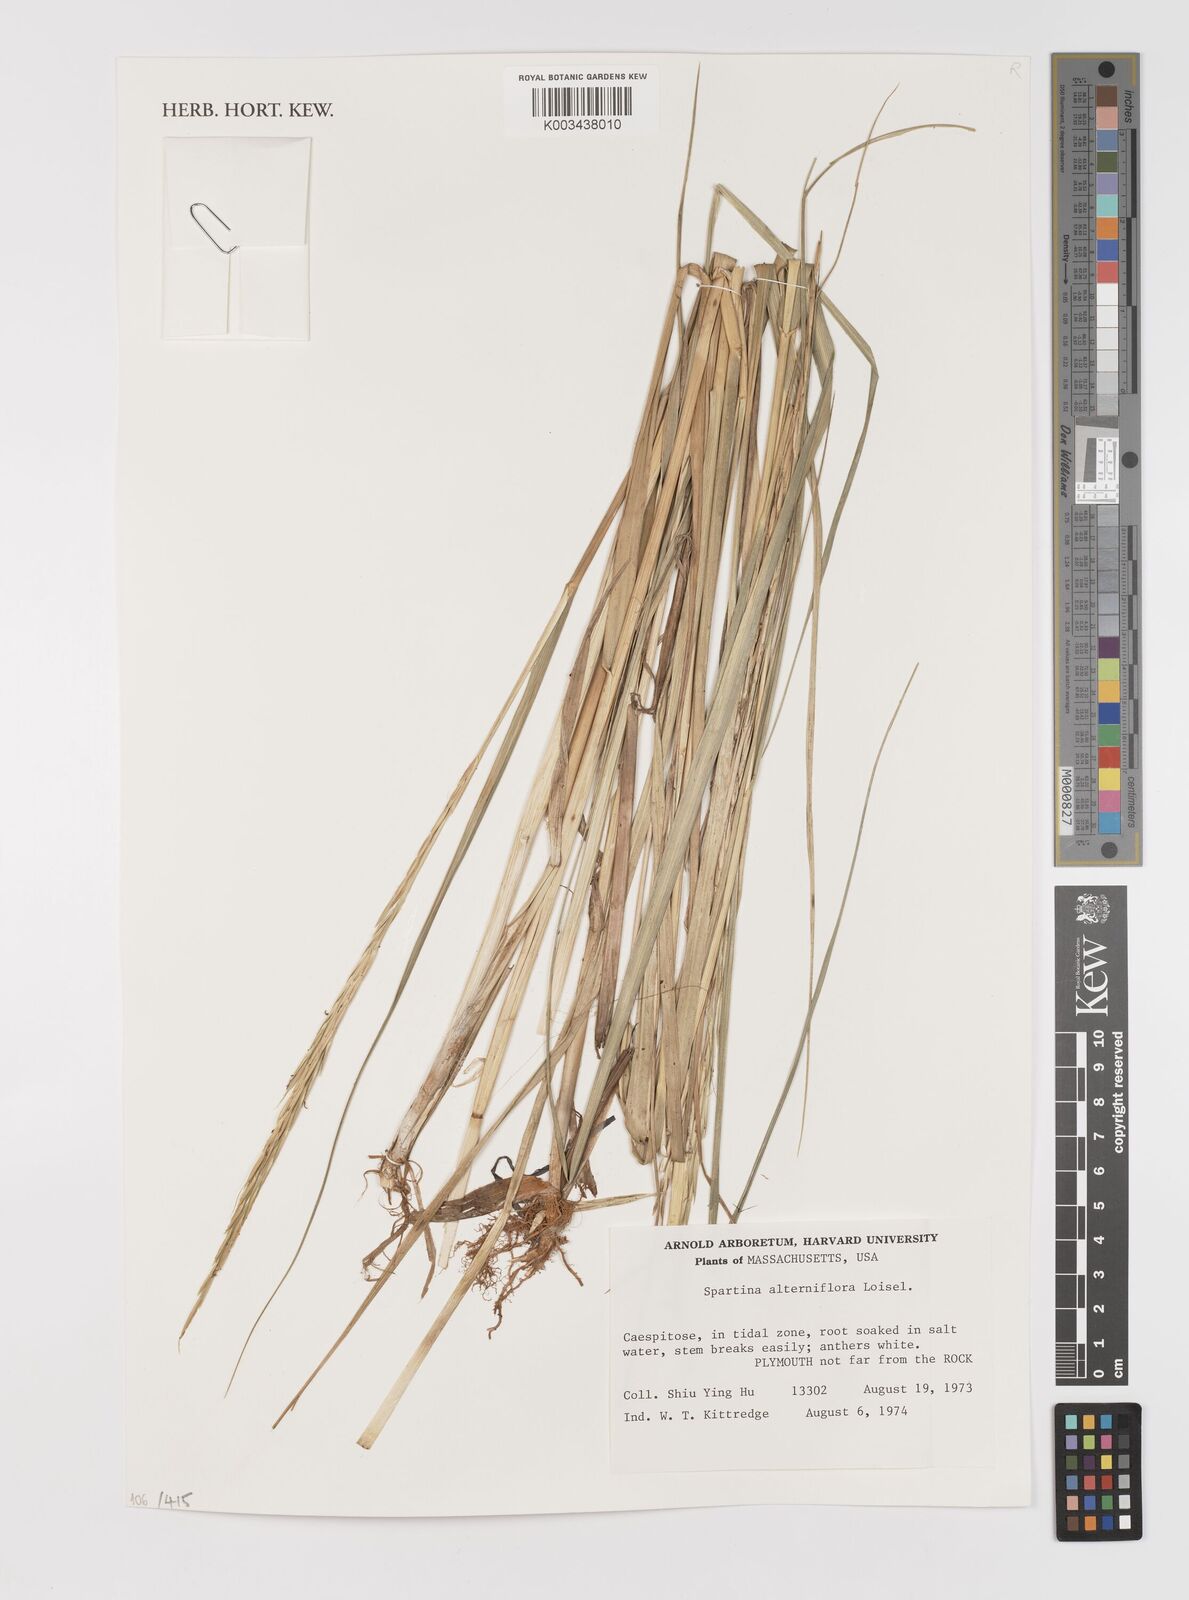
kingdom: Animalia
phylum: Mollusca
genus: Spartina
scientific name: Spartina
